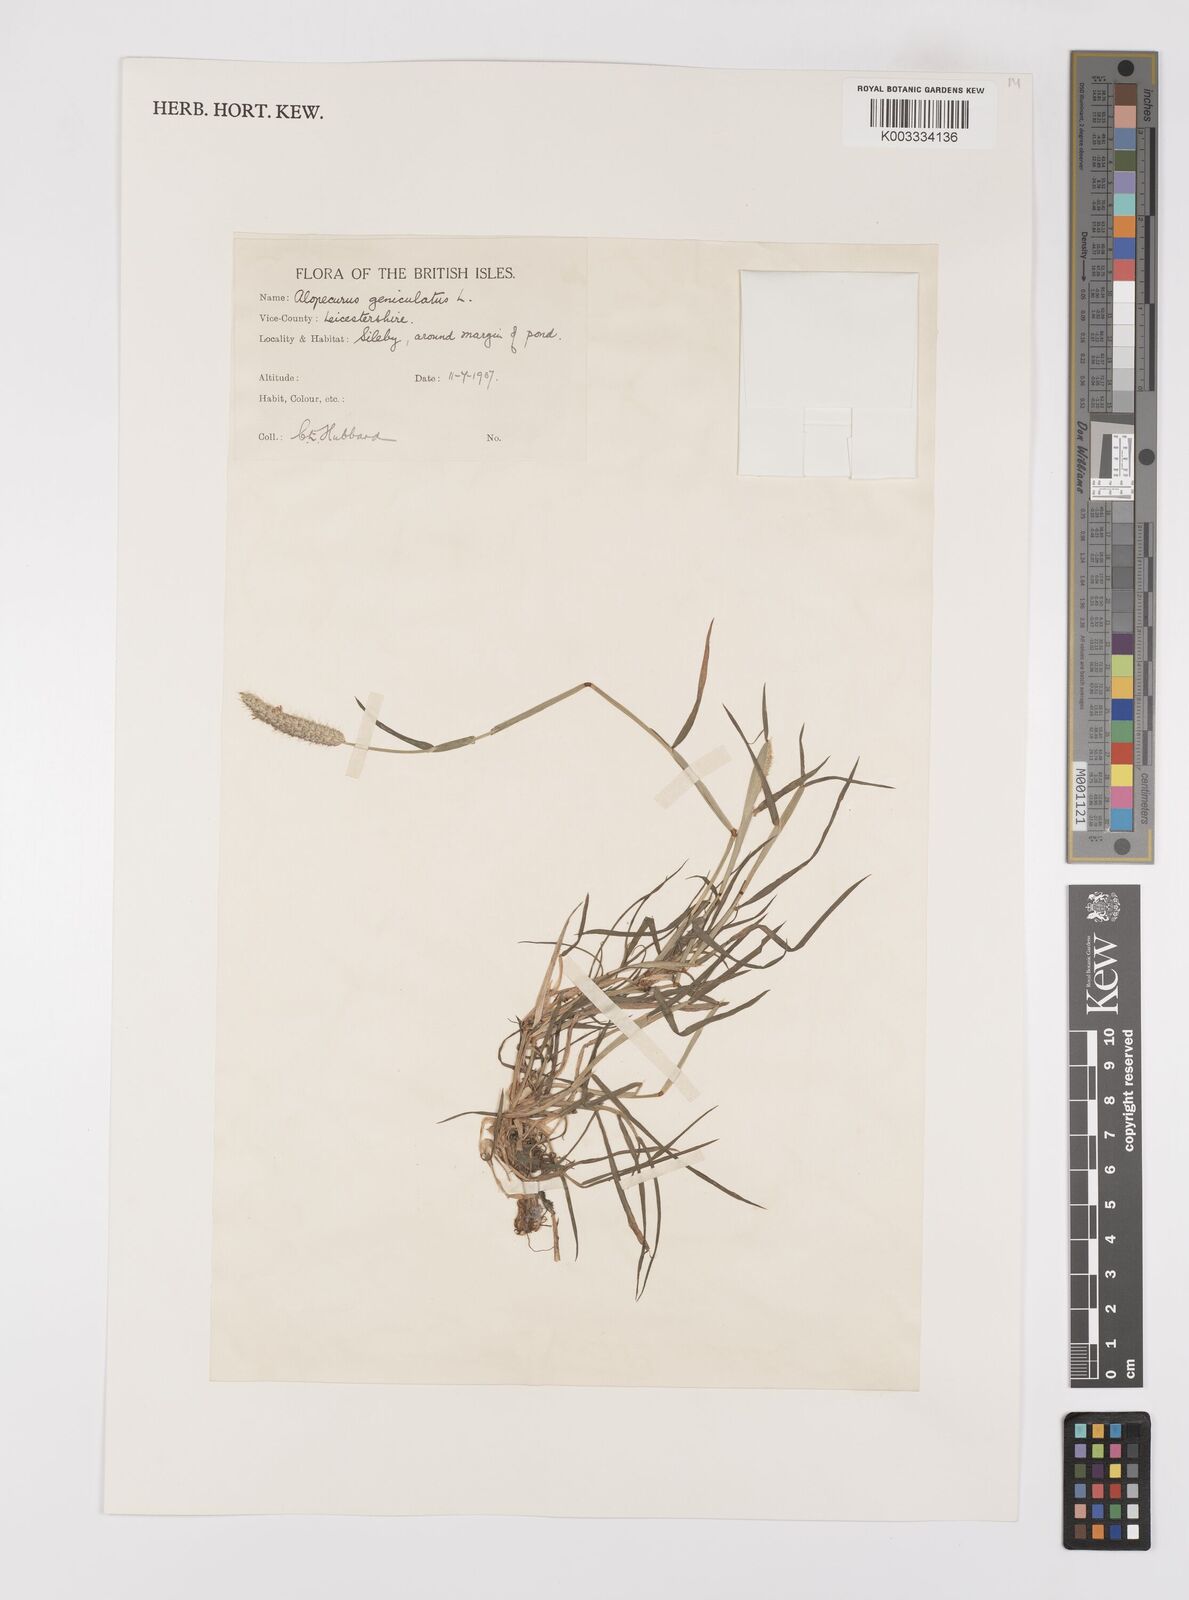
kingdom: Plantae
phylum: Tracheophyta
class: Liliopsida
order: Poales
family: Poaceae
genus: Alopecurus
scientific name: Alopecurus geniculatus
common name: Water foxtail
